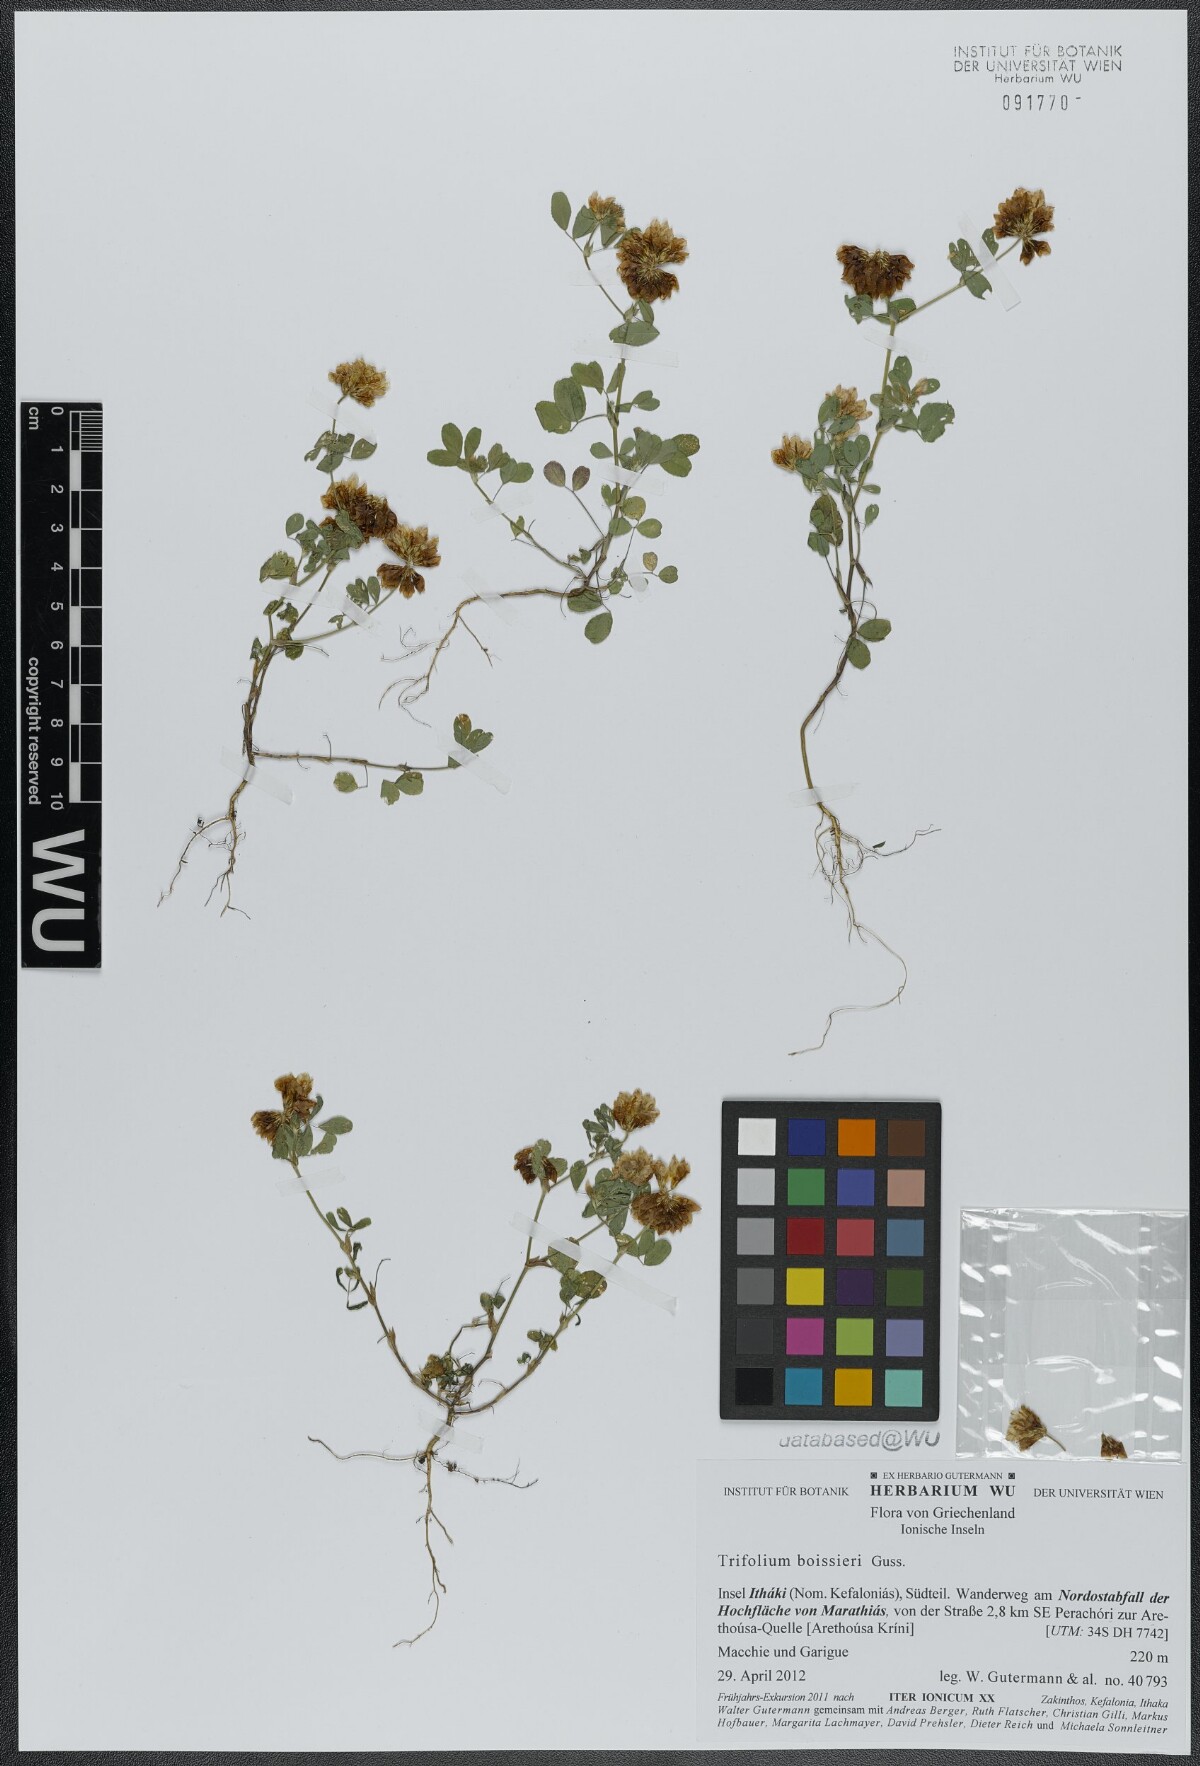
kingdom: Plantae
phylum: Tracheophyta
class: Magnoliopsida
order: Fabales
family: Fabaceae
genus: Trifolium
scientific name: Trifolium boissieri
